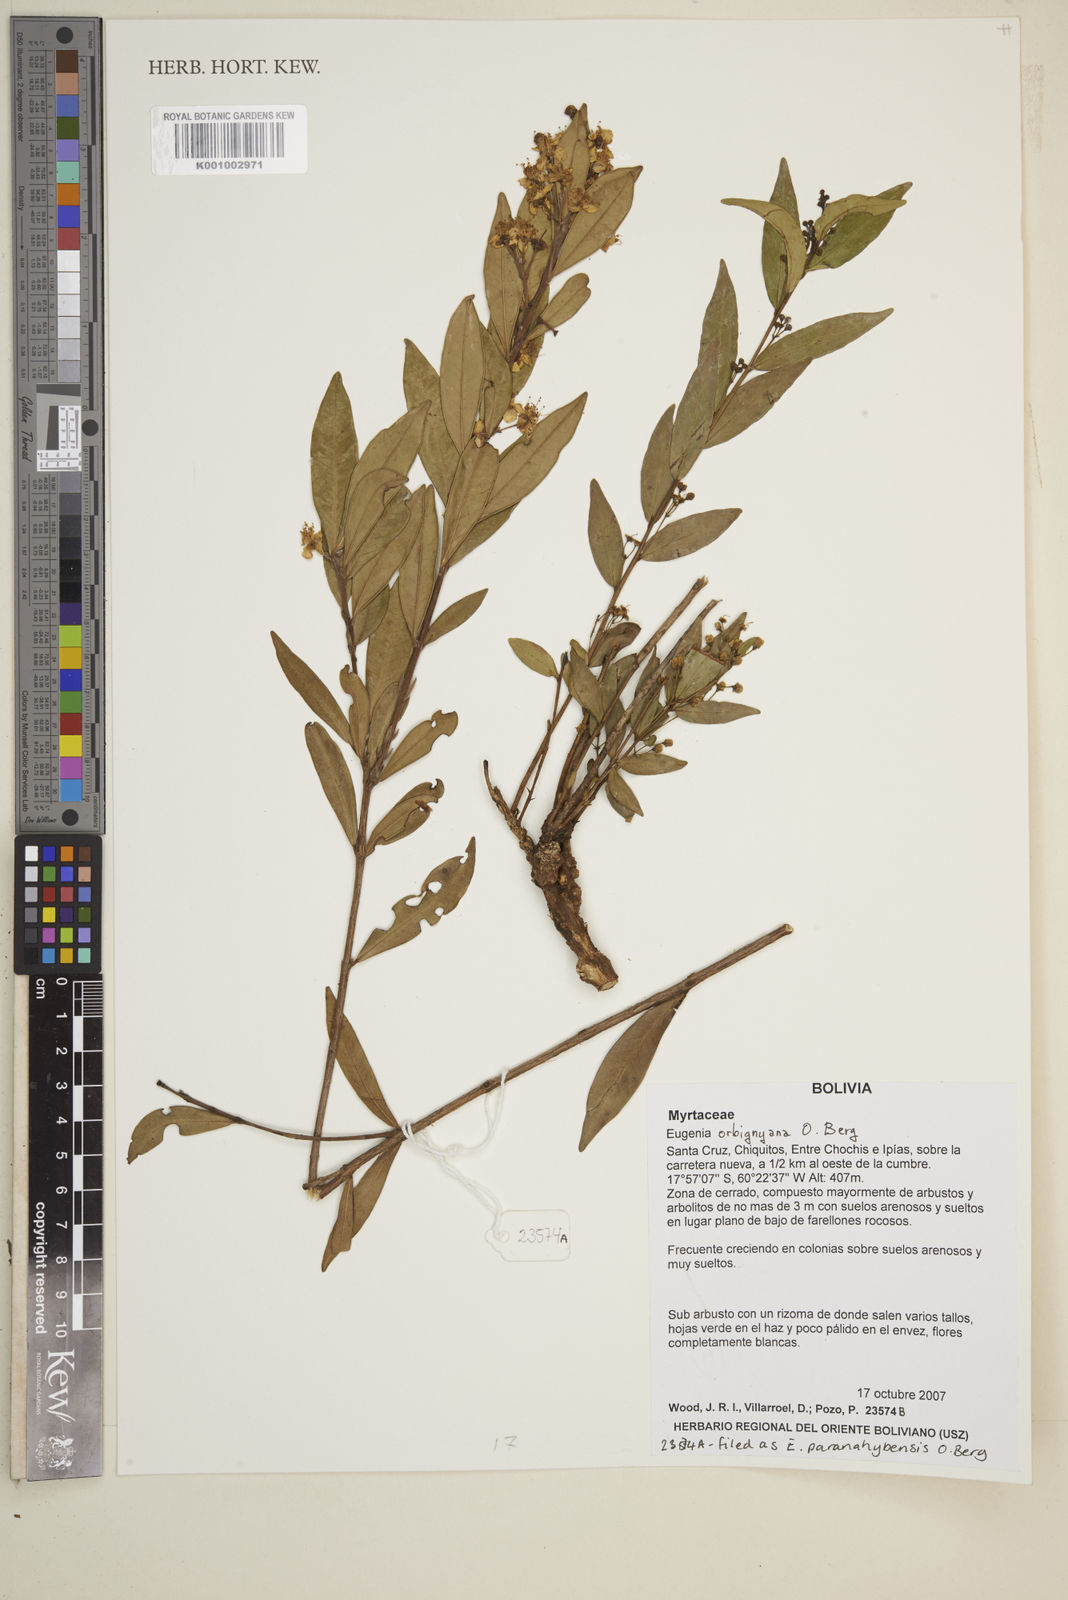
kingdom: Plantae
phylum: Tracheophyta
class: Magnoliopsida
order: Myrtales
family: Myrtaceae
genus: Eugenia
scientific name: Eugenia orbignyana
